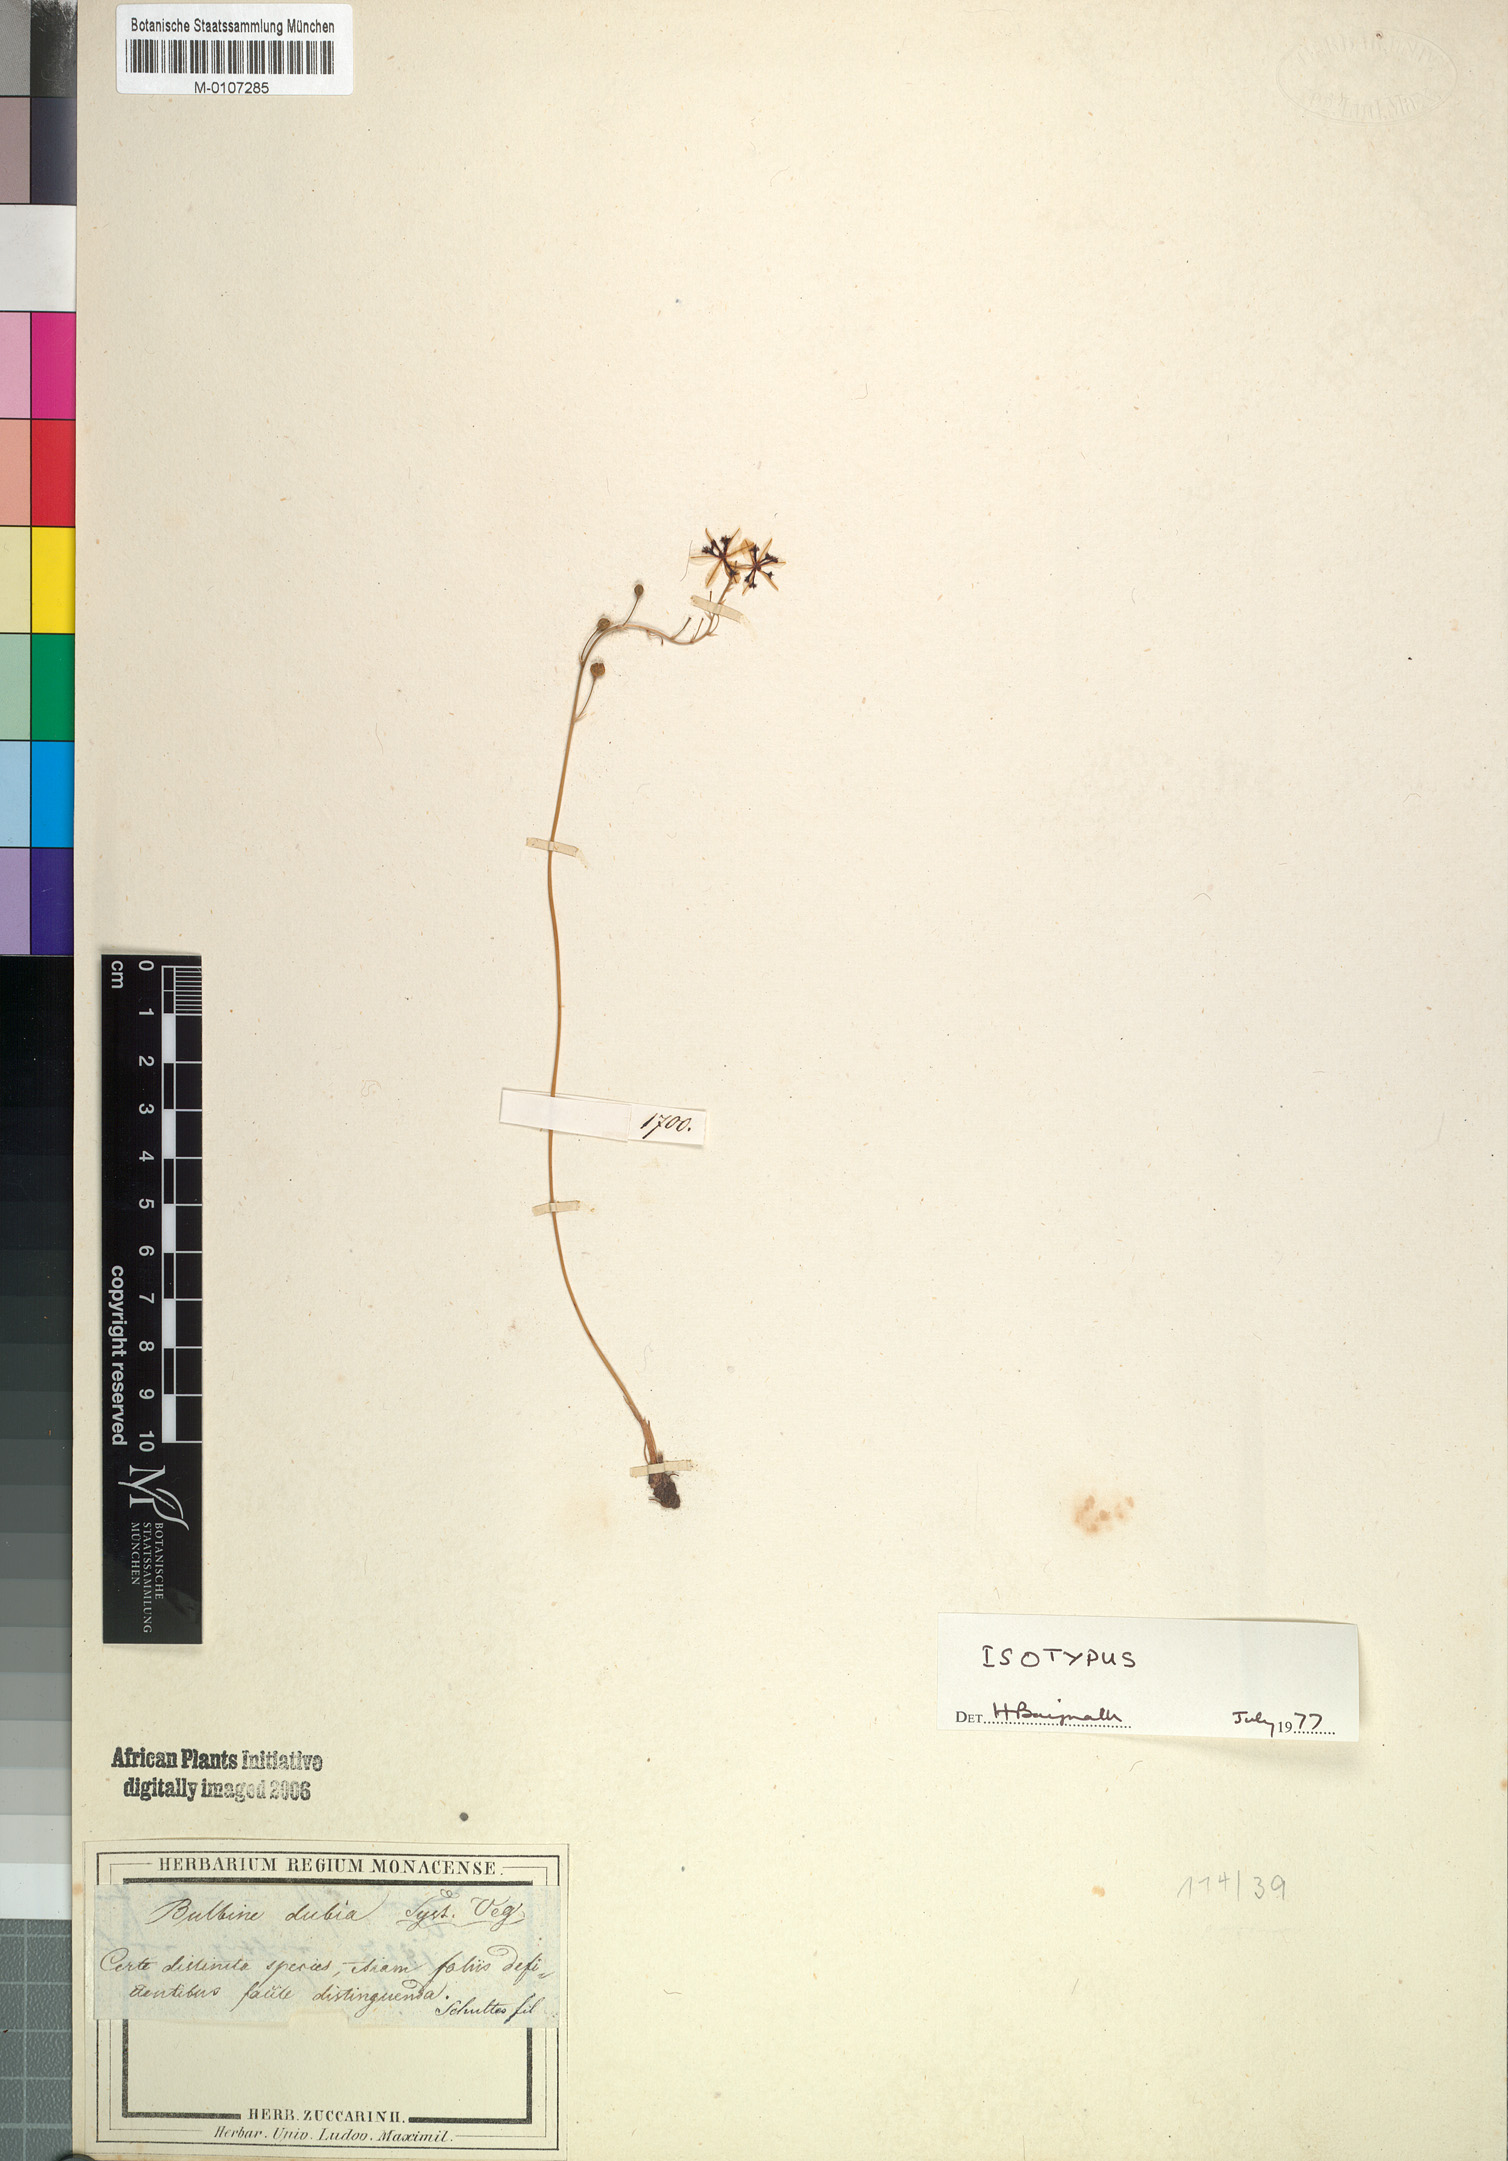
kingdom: Plantae
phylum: Tracheophyta
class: Liliopsida
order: Asparagales
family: Asphodelaceae
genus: Bulbine
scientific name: Bulbine favosa
